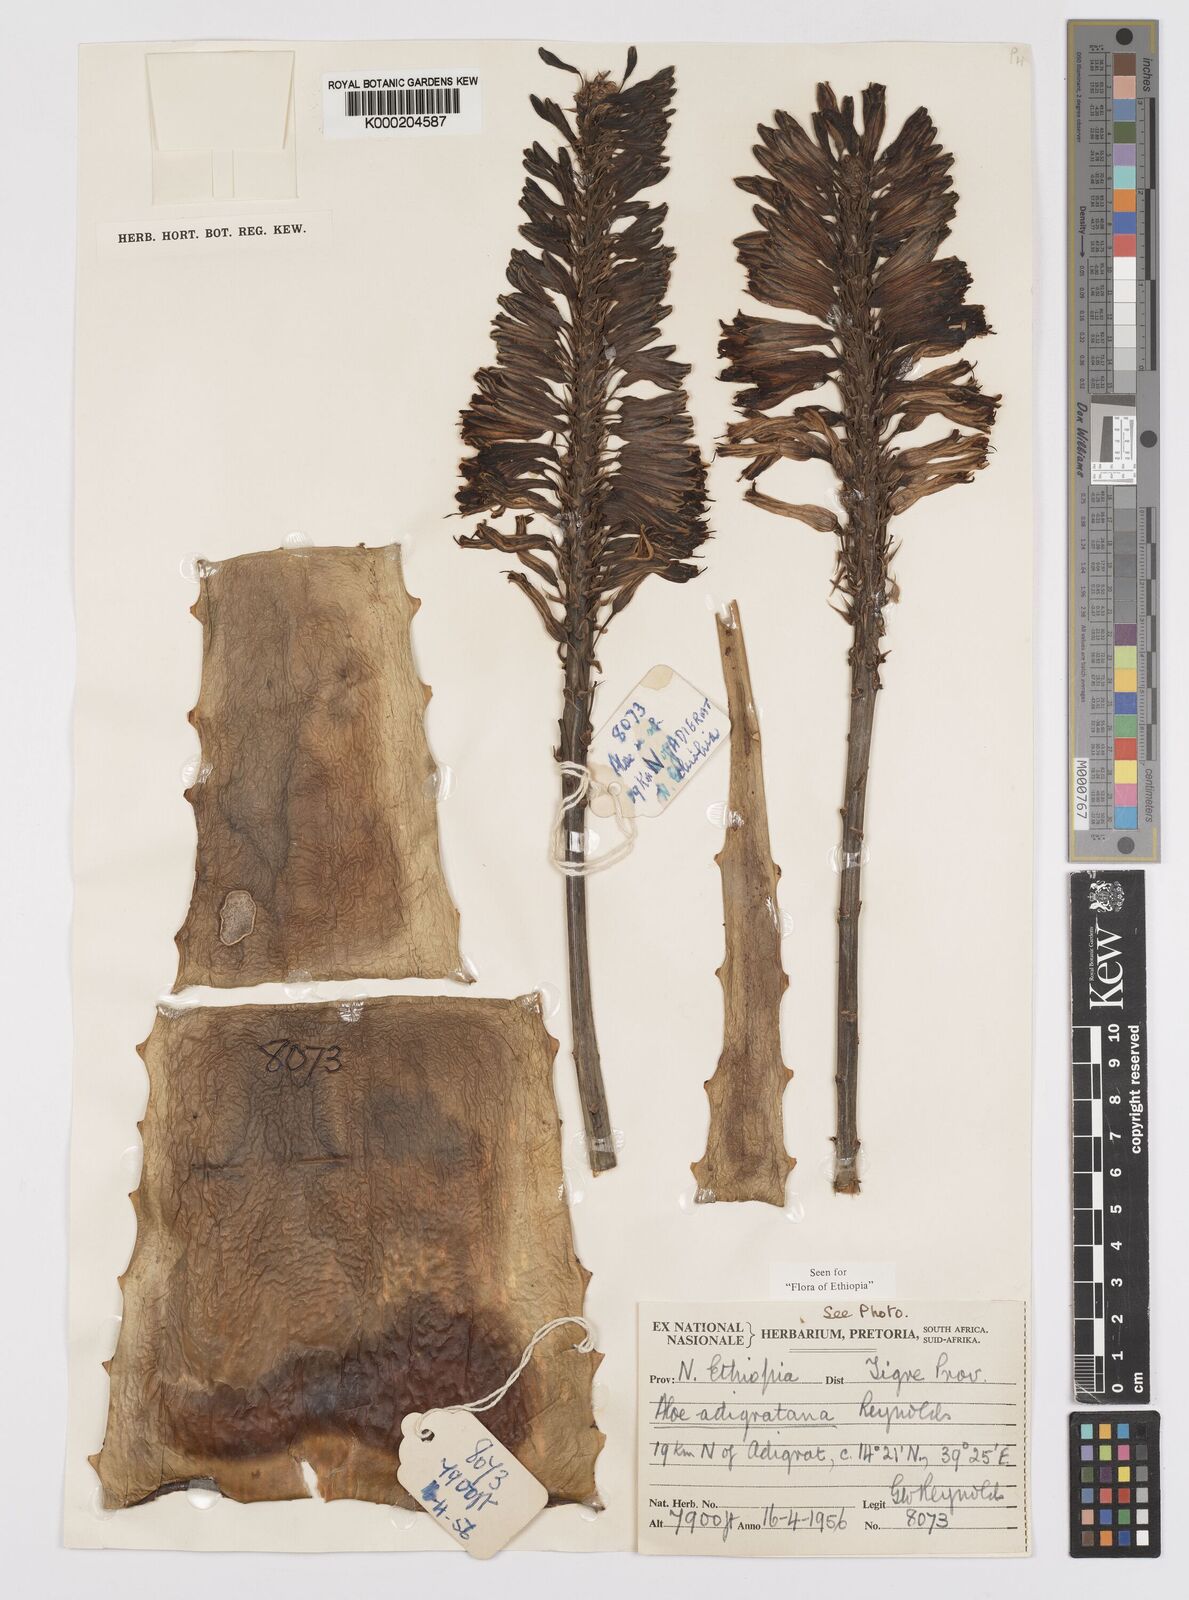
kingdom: Plantae
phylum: Tracheophyta
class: Liliopsida
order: Asparagales
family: Asphodelaceae
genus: Aloe
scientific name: Aloe adigratana
